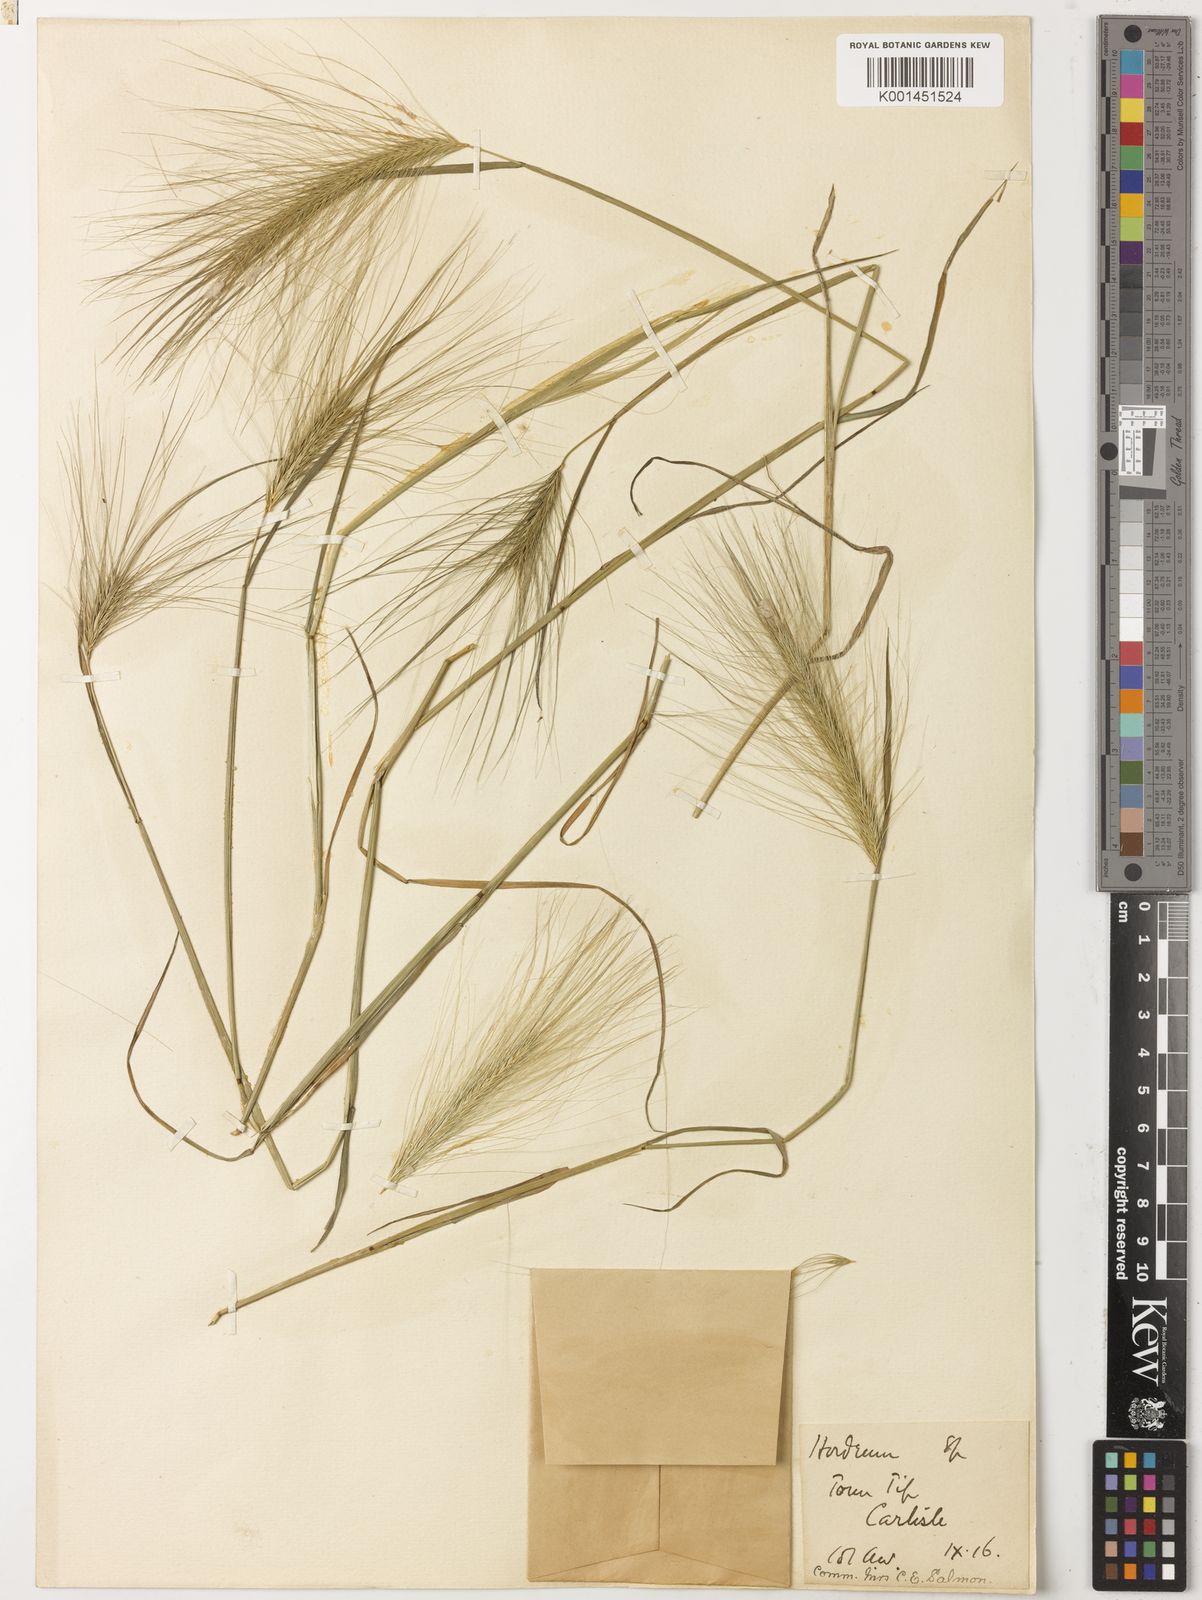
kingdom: Plantae
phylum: Tracheophyta
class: Liliopsida
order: Poales
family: Poaceae
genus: Hordeum
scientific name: Hordeum jubatum
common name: Foxtail barley
